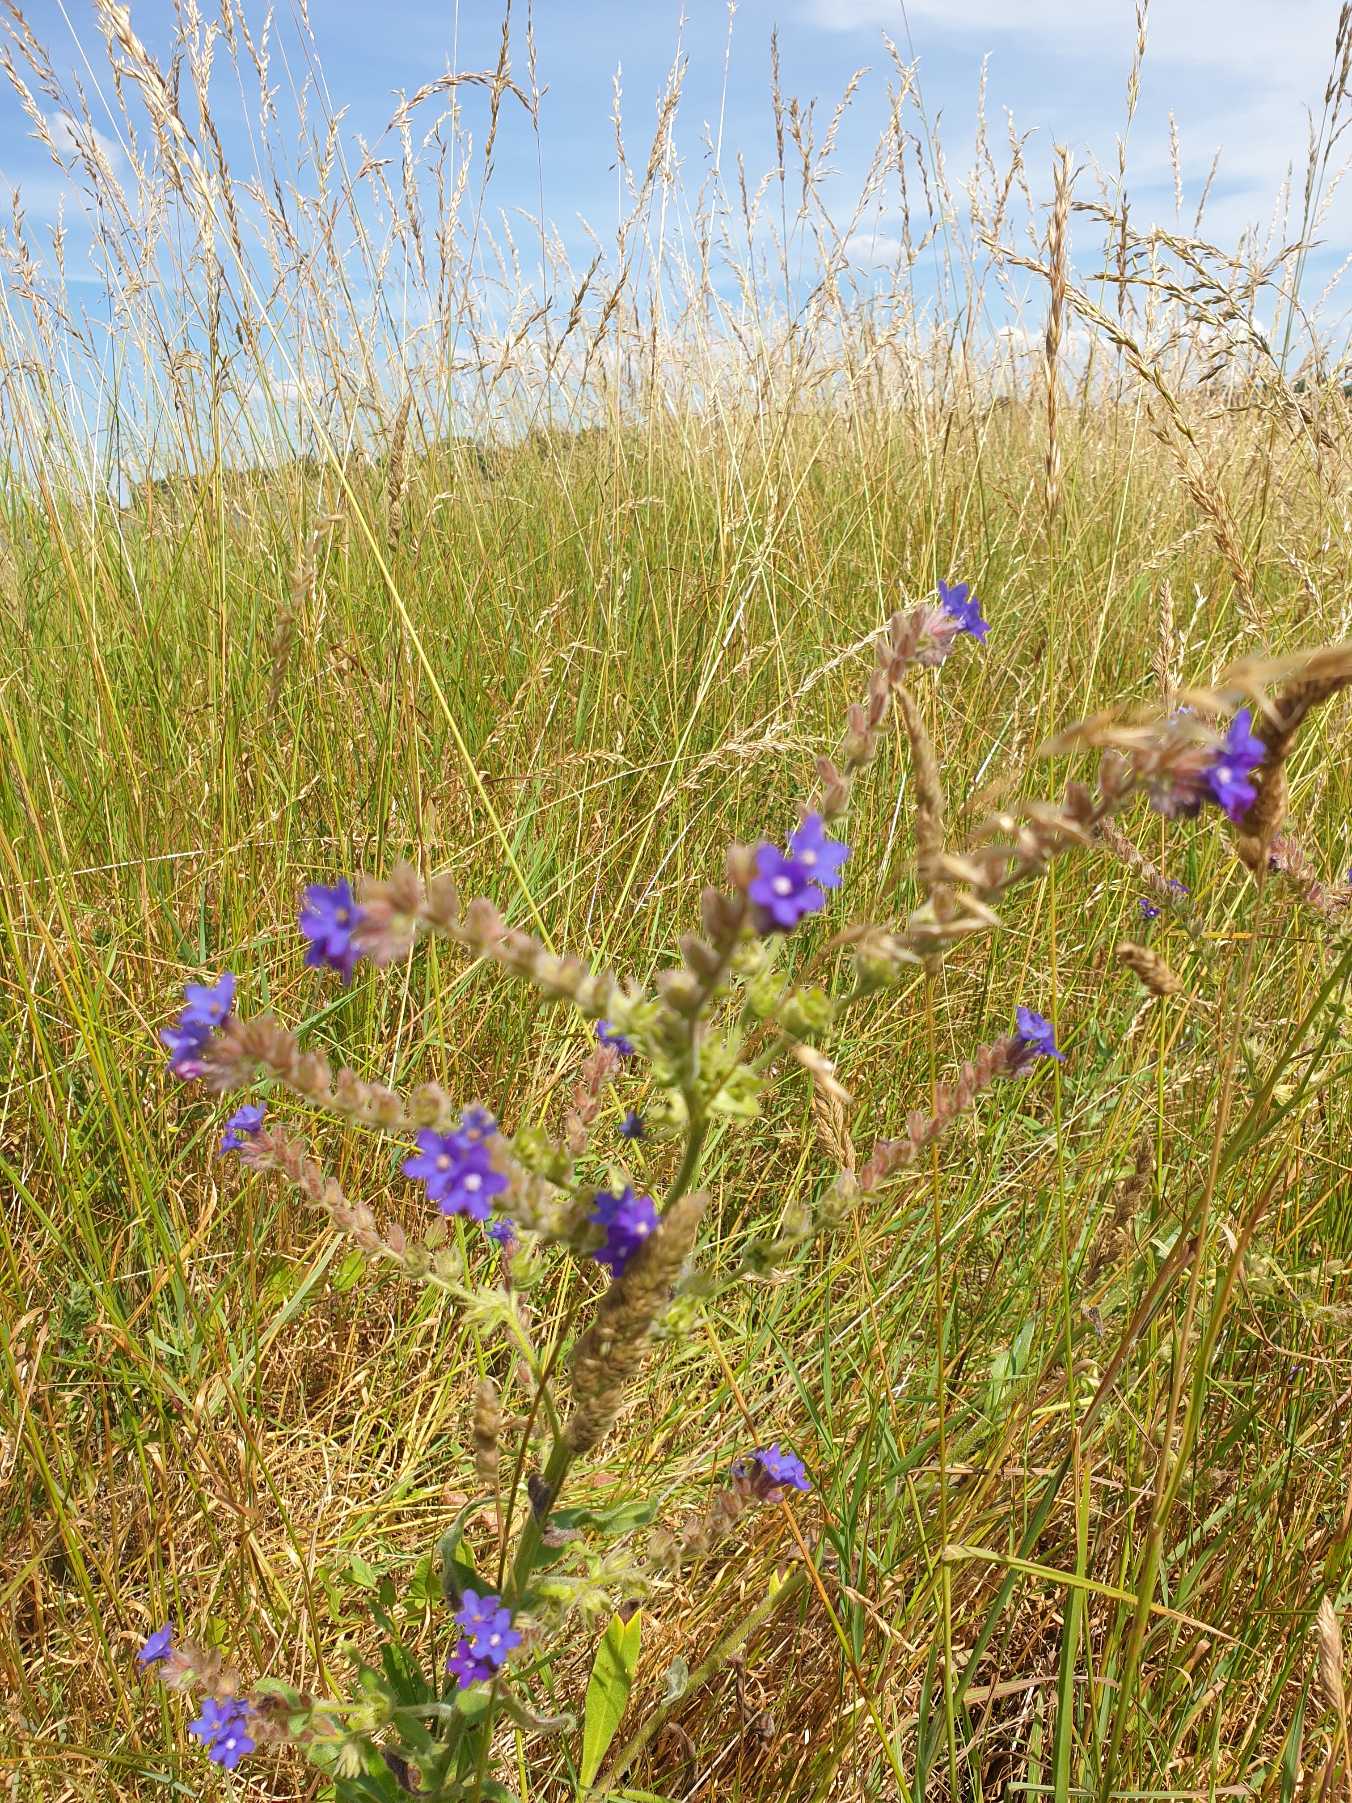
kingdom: Plantae
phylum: Tracheophyta
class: Magnoliopsida
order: Boraginales
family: Boraginaceae
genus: Anchusa
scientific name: Anchusa officinalis
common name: Læge-oksetunge
